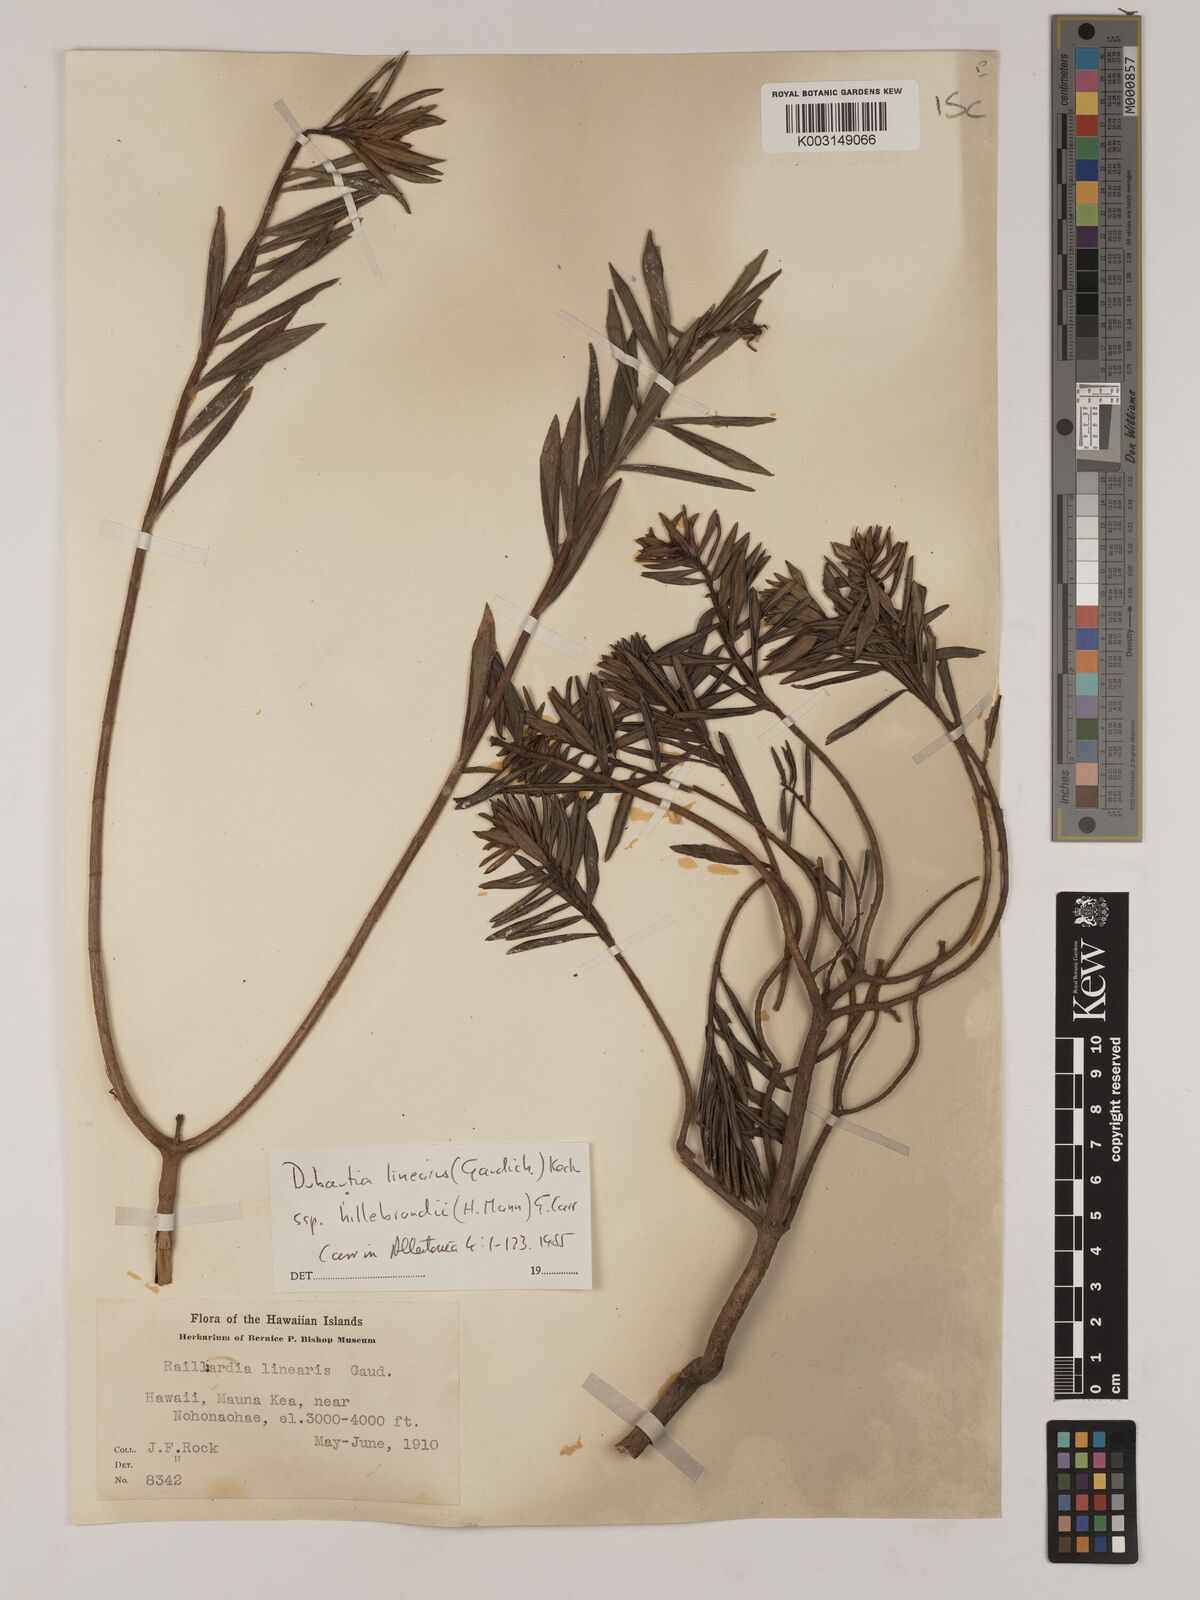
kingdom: Plantae
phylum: Tracheophyta
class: Magnoliopsida
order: Asterales
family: Asteraceae
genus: Dubautia
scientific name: Dubautia linearis
